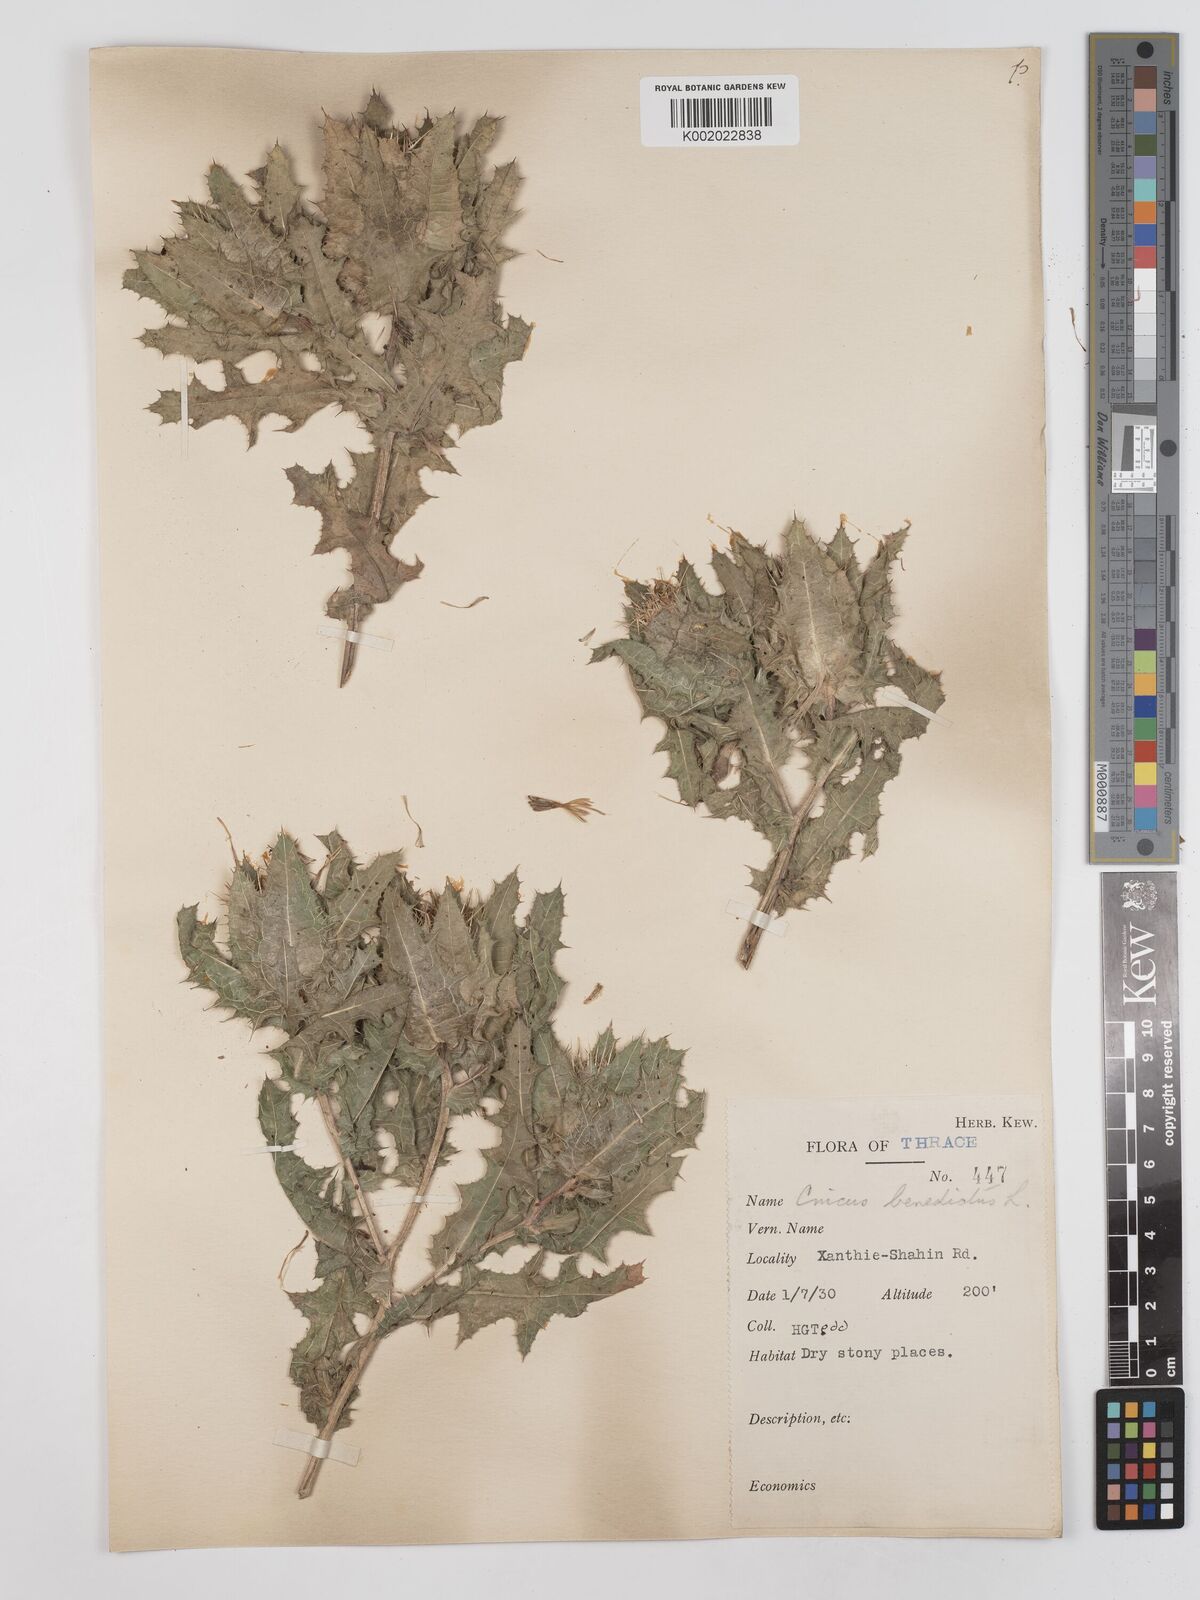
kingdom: Plantae
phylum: Tracheophyta
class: Magnoliopsida
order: Asterales
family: Asteraceae
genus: Centaurea
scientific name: Centaurea benedicta
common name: Blessed thistle
